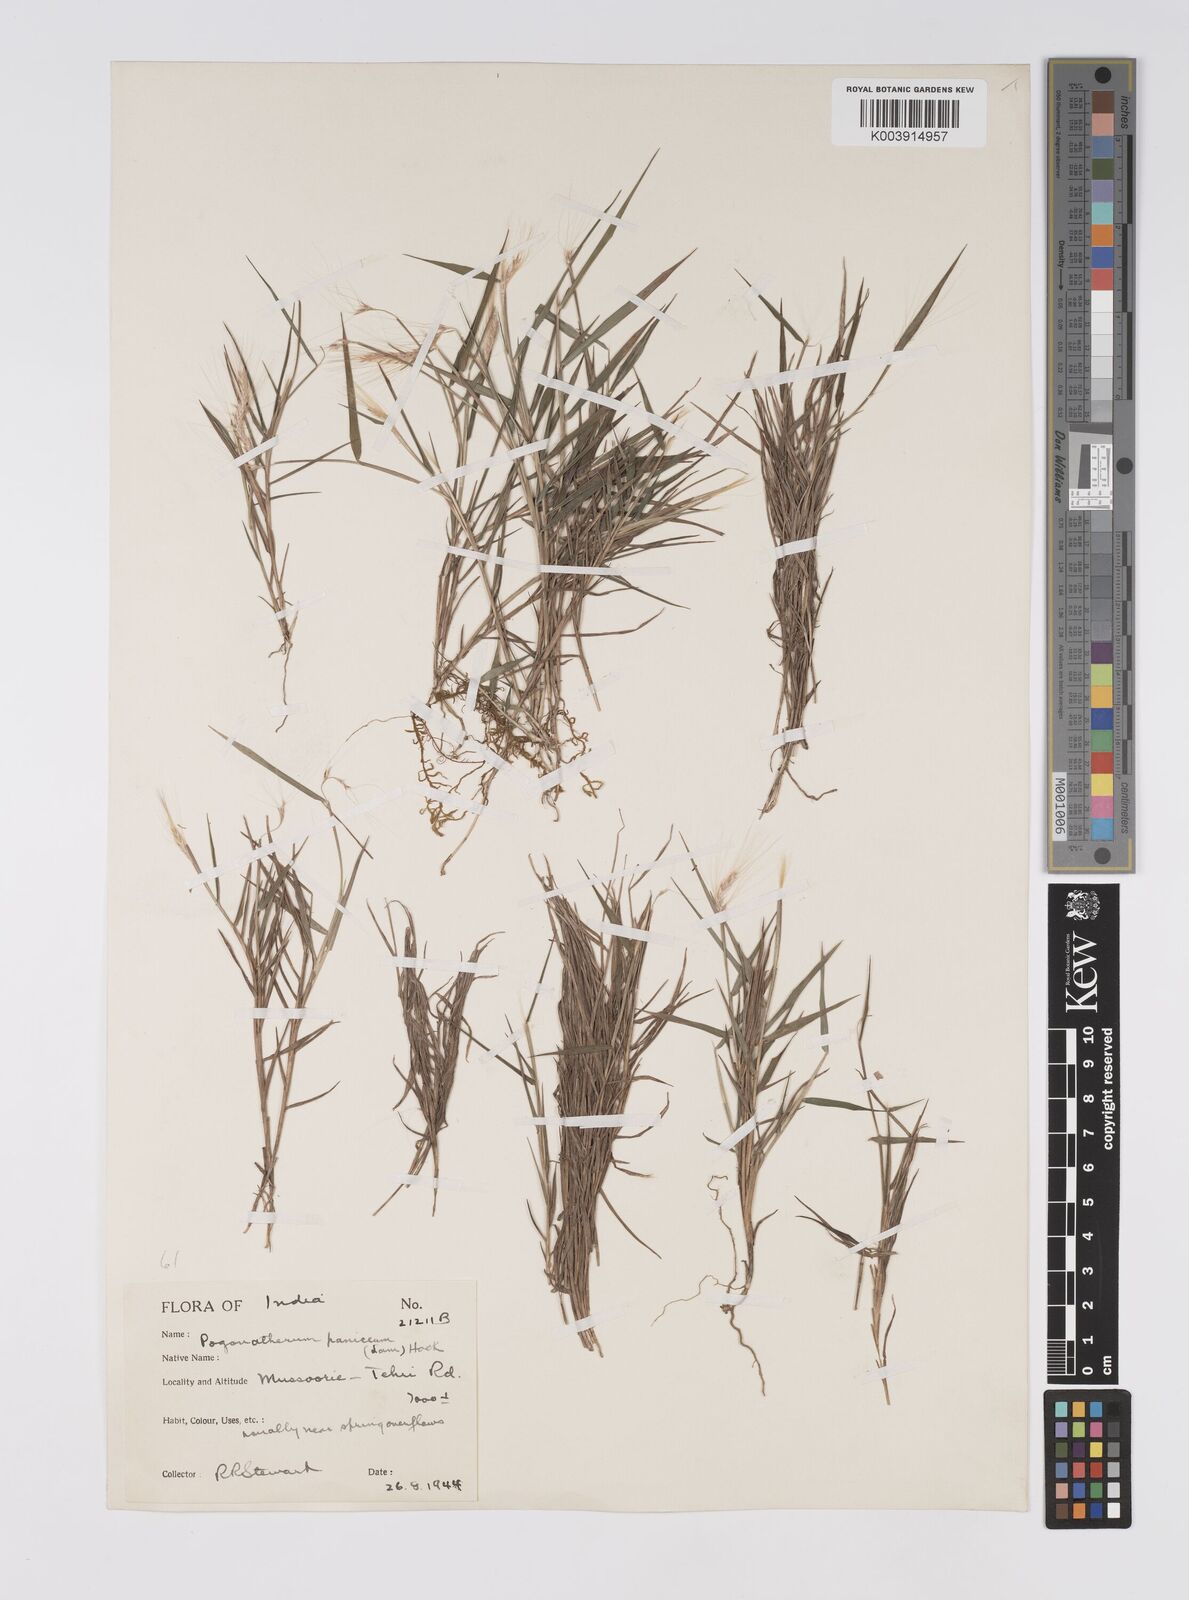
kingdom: Plantae
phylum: Tracheophyta
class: Liliopsida
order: Poales
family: Poaceae
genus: Pogonatherum
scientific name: Pogonatherum paniceum
